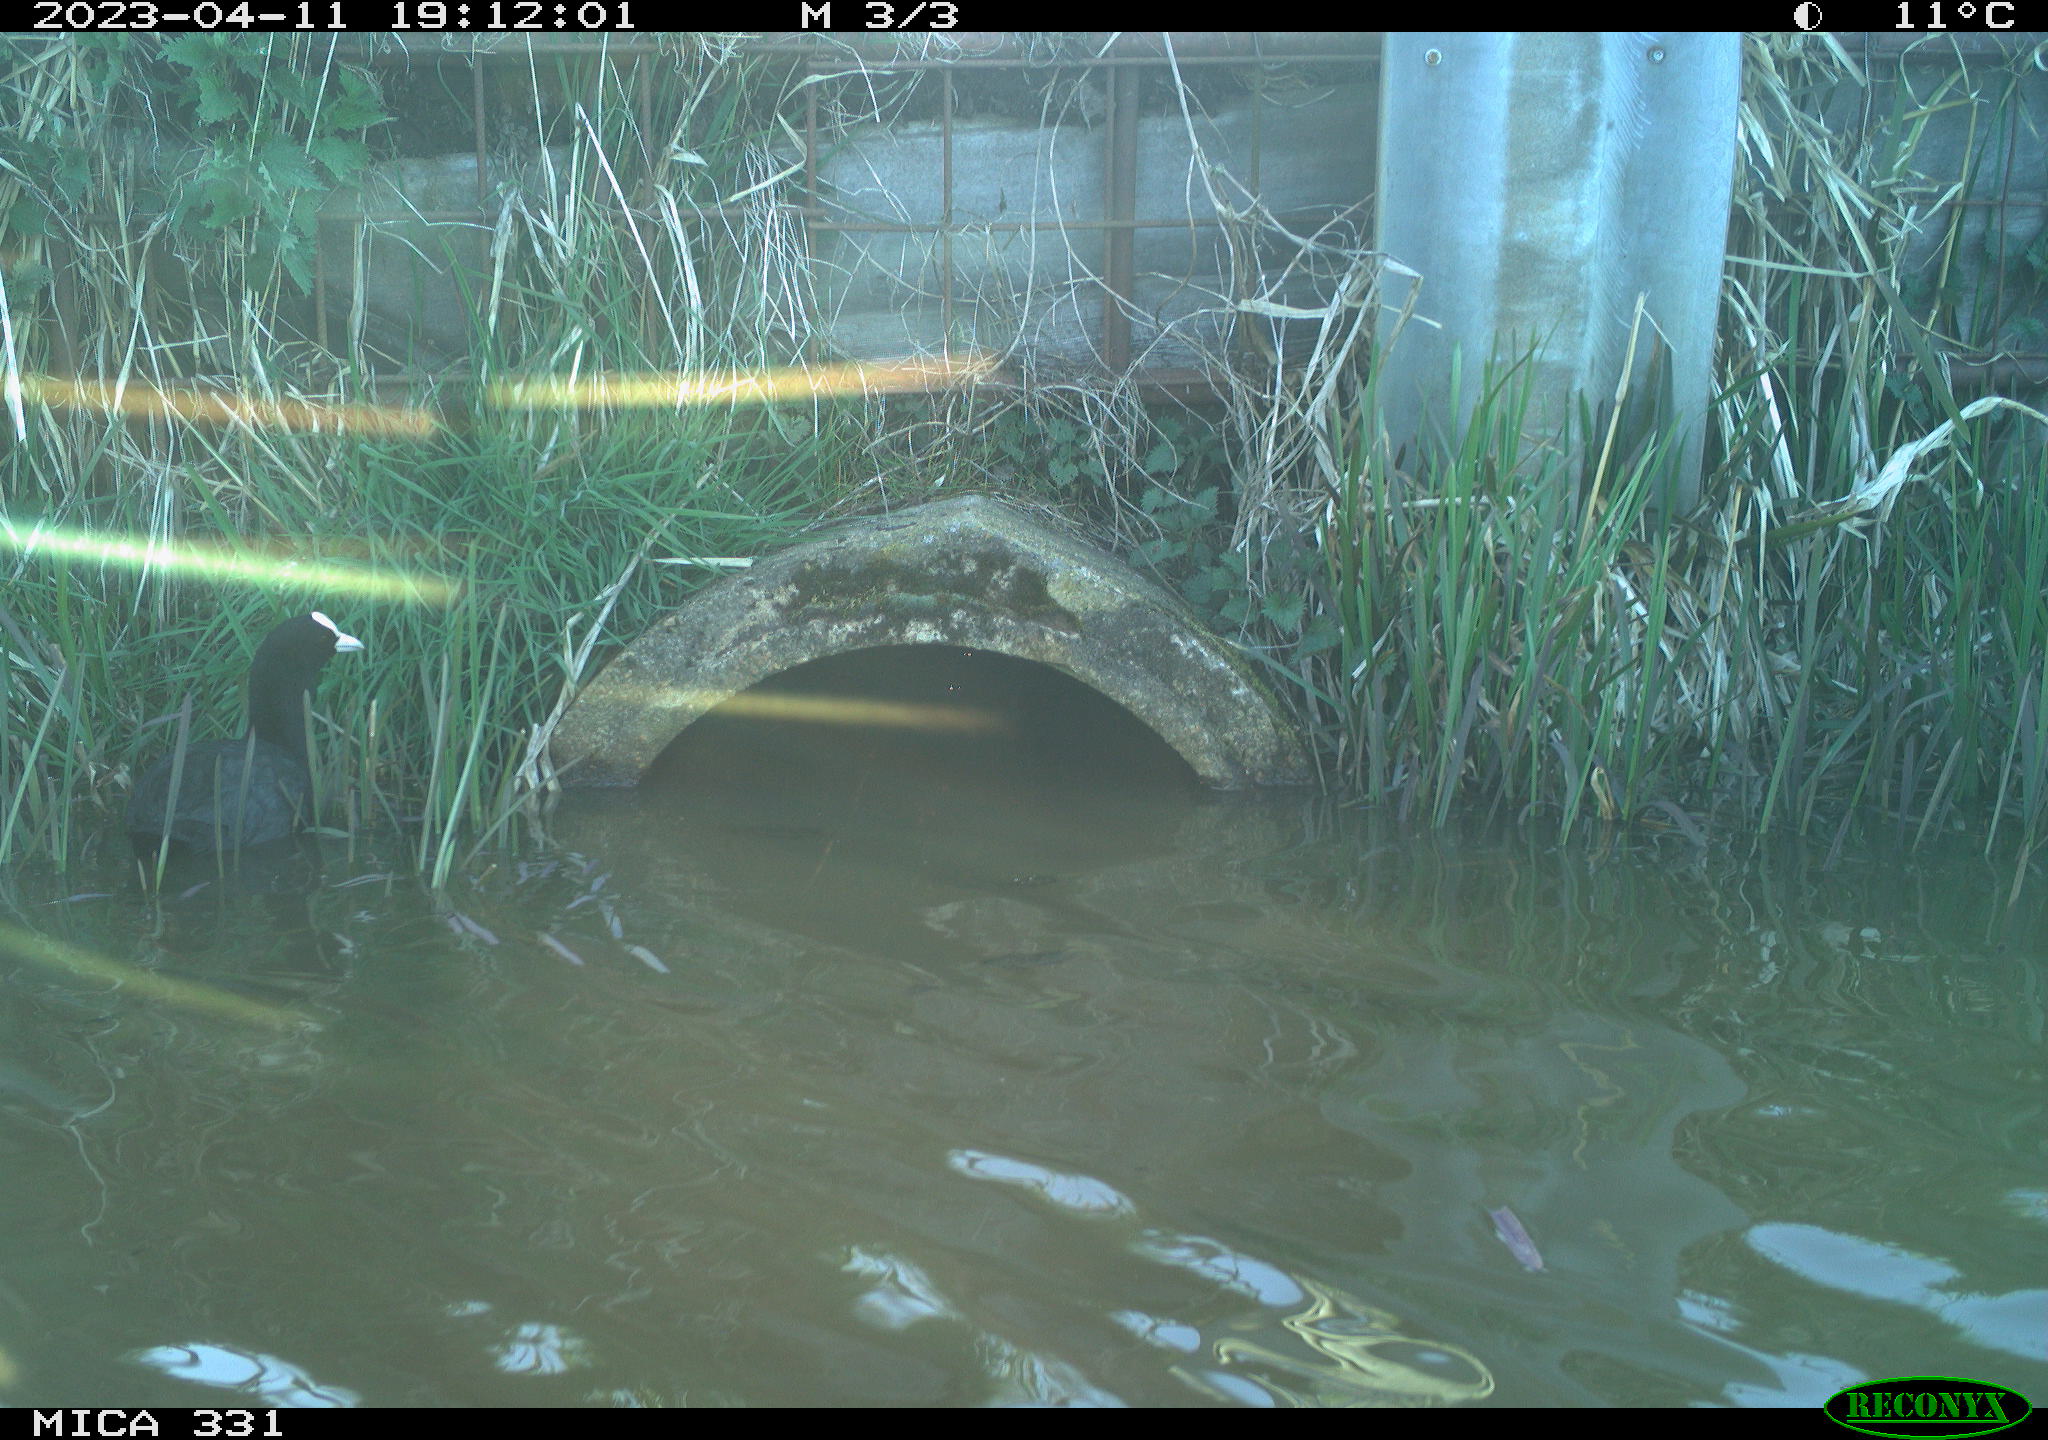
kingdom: Animalia
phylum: Chordata
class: Aves
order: Gruiformes
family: Rallidae
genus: Fulica
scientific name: Fulica atra
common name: Eurasian coot
